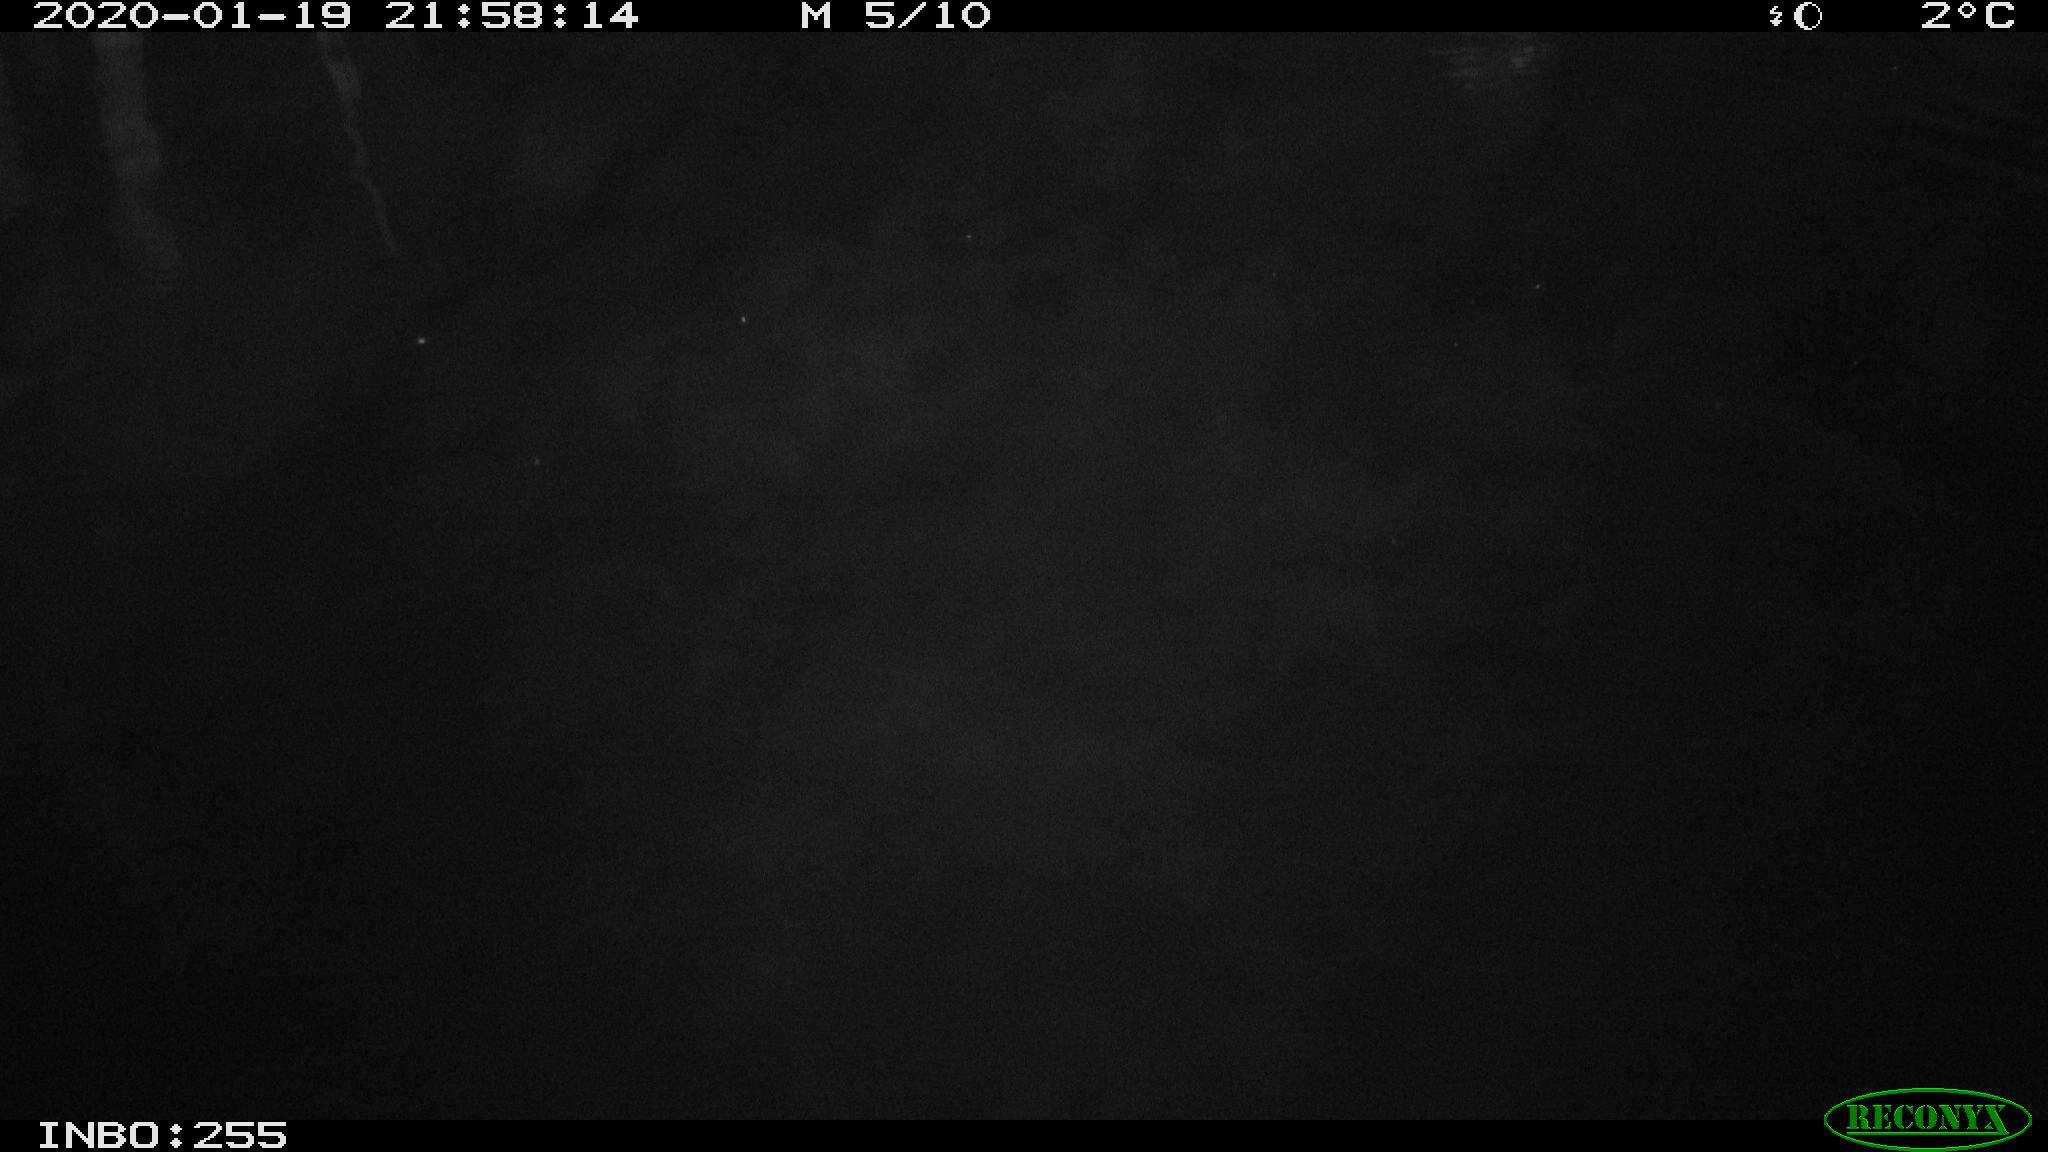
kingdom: Animalia
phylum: Chordata
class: Aves
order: Anseriformes
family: Anatidae
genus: Anas
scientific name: Anas platyrhynchos
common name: Mallard
